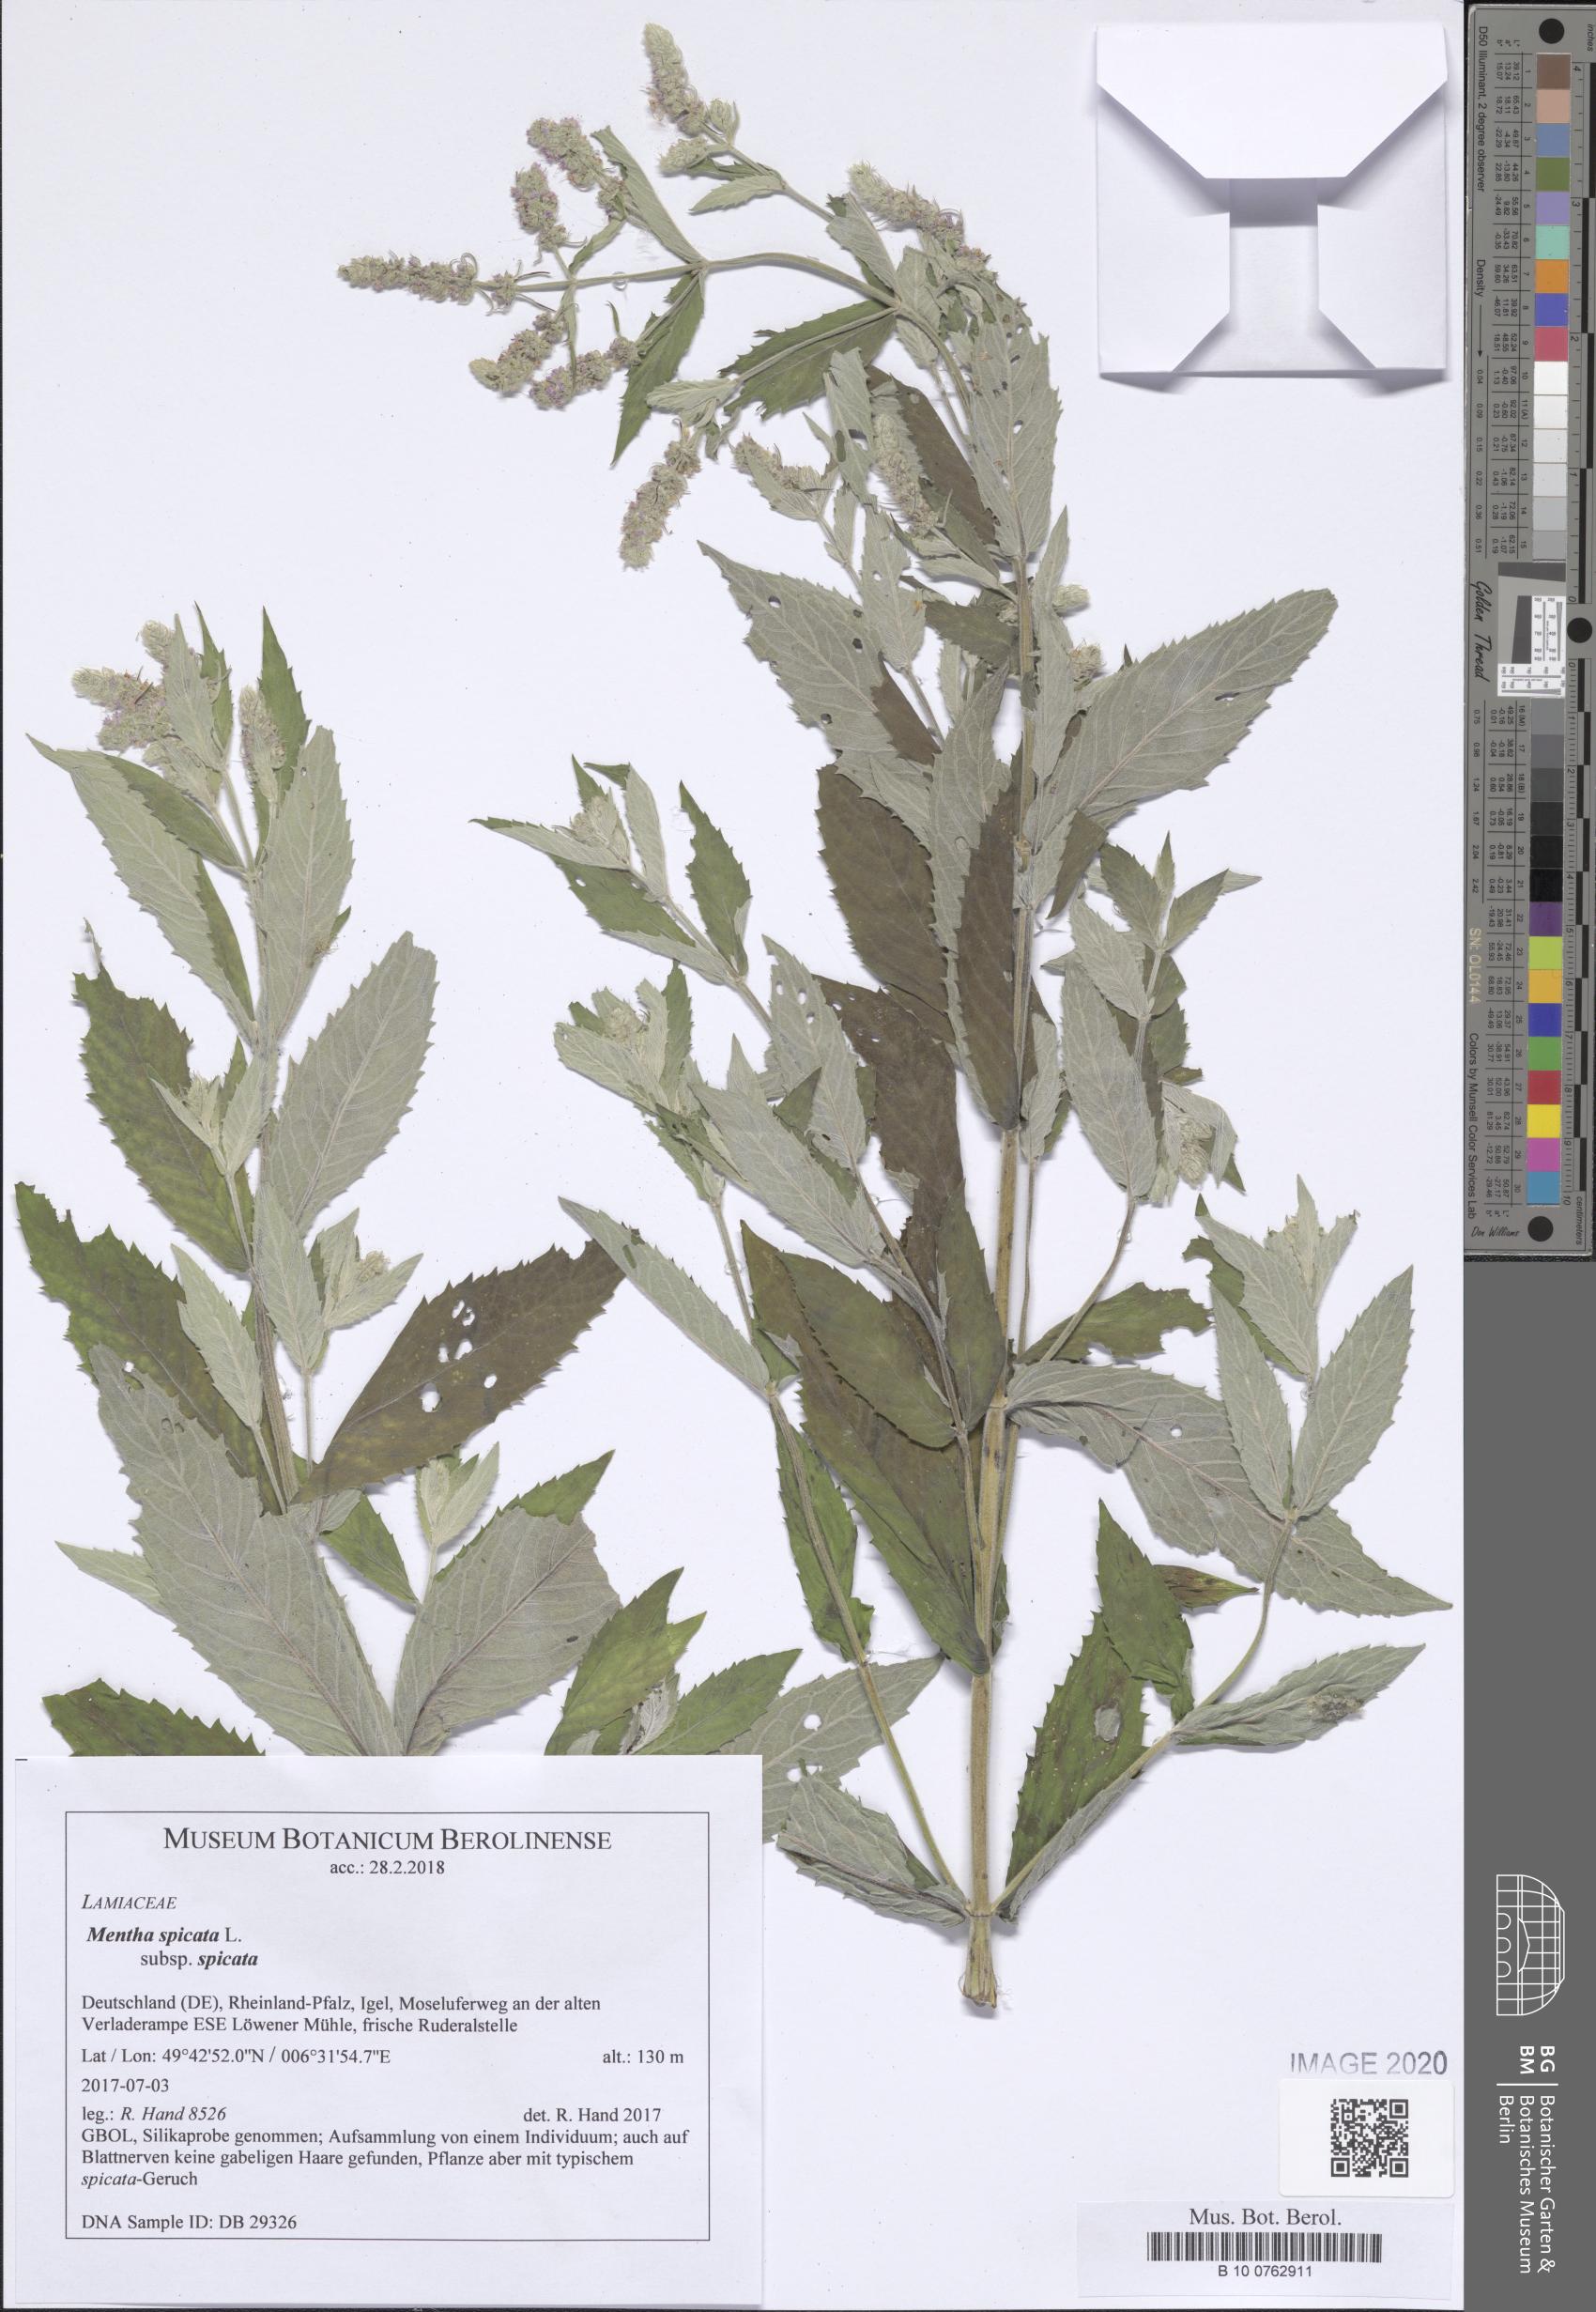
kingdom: Plantae
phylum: Tracheophyta
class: Magnoliopsida
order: Lamiales
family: Lamiaceae
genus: Mentha
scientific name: Mentha spicata
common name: Spearmint
